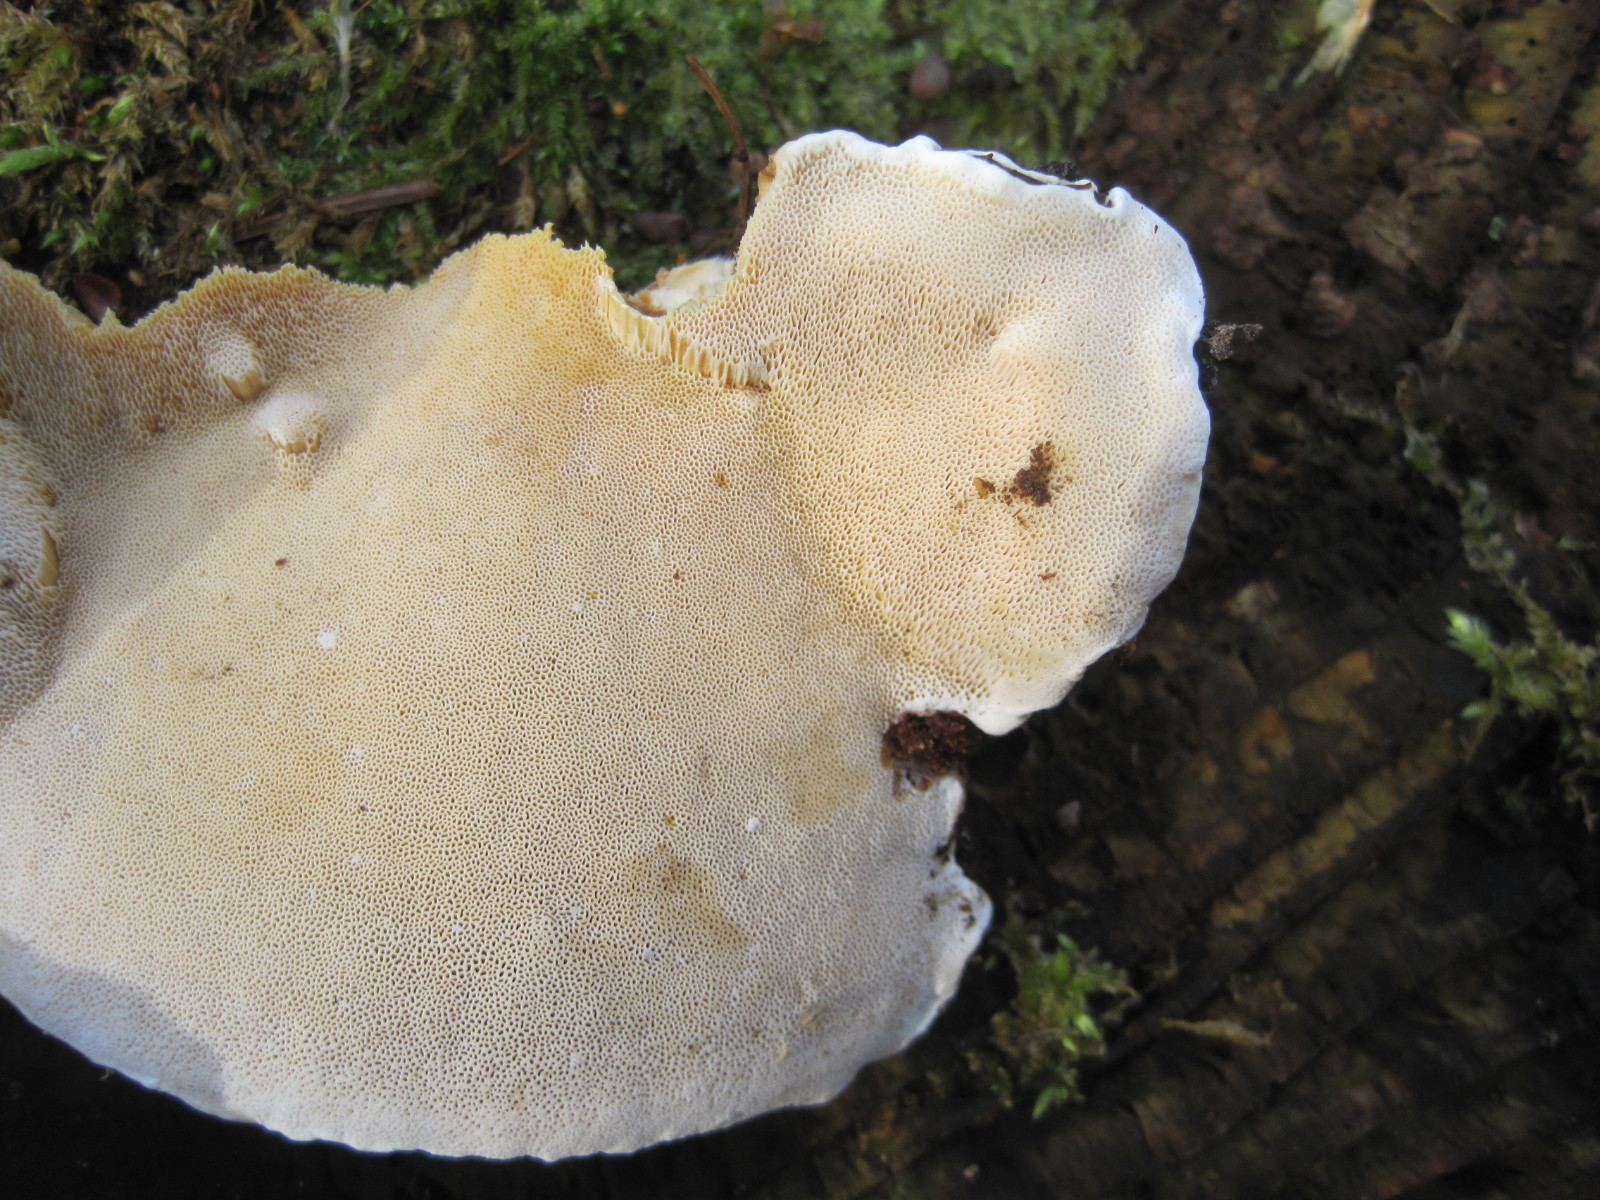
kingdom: Fungi
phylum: Basidiomycota
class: Agaricomycetes
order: Russulales
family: Bondarzewiaceae
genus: Heterobasidion
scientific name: Heterobasidion annosum
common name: almindelig rodfordærver
